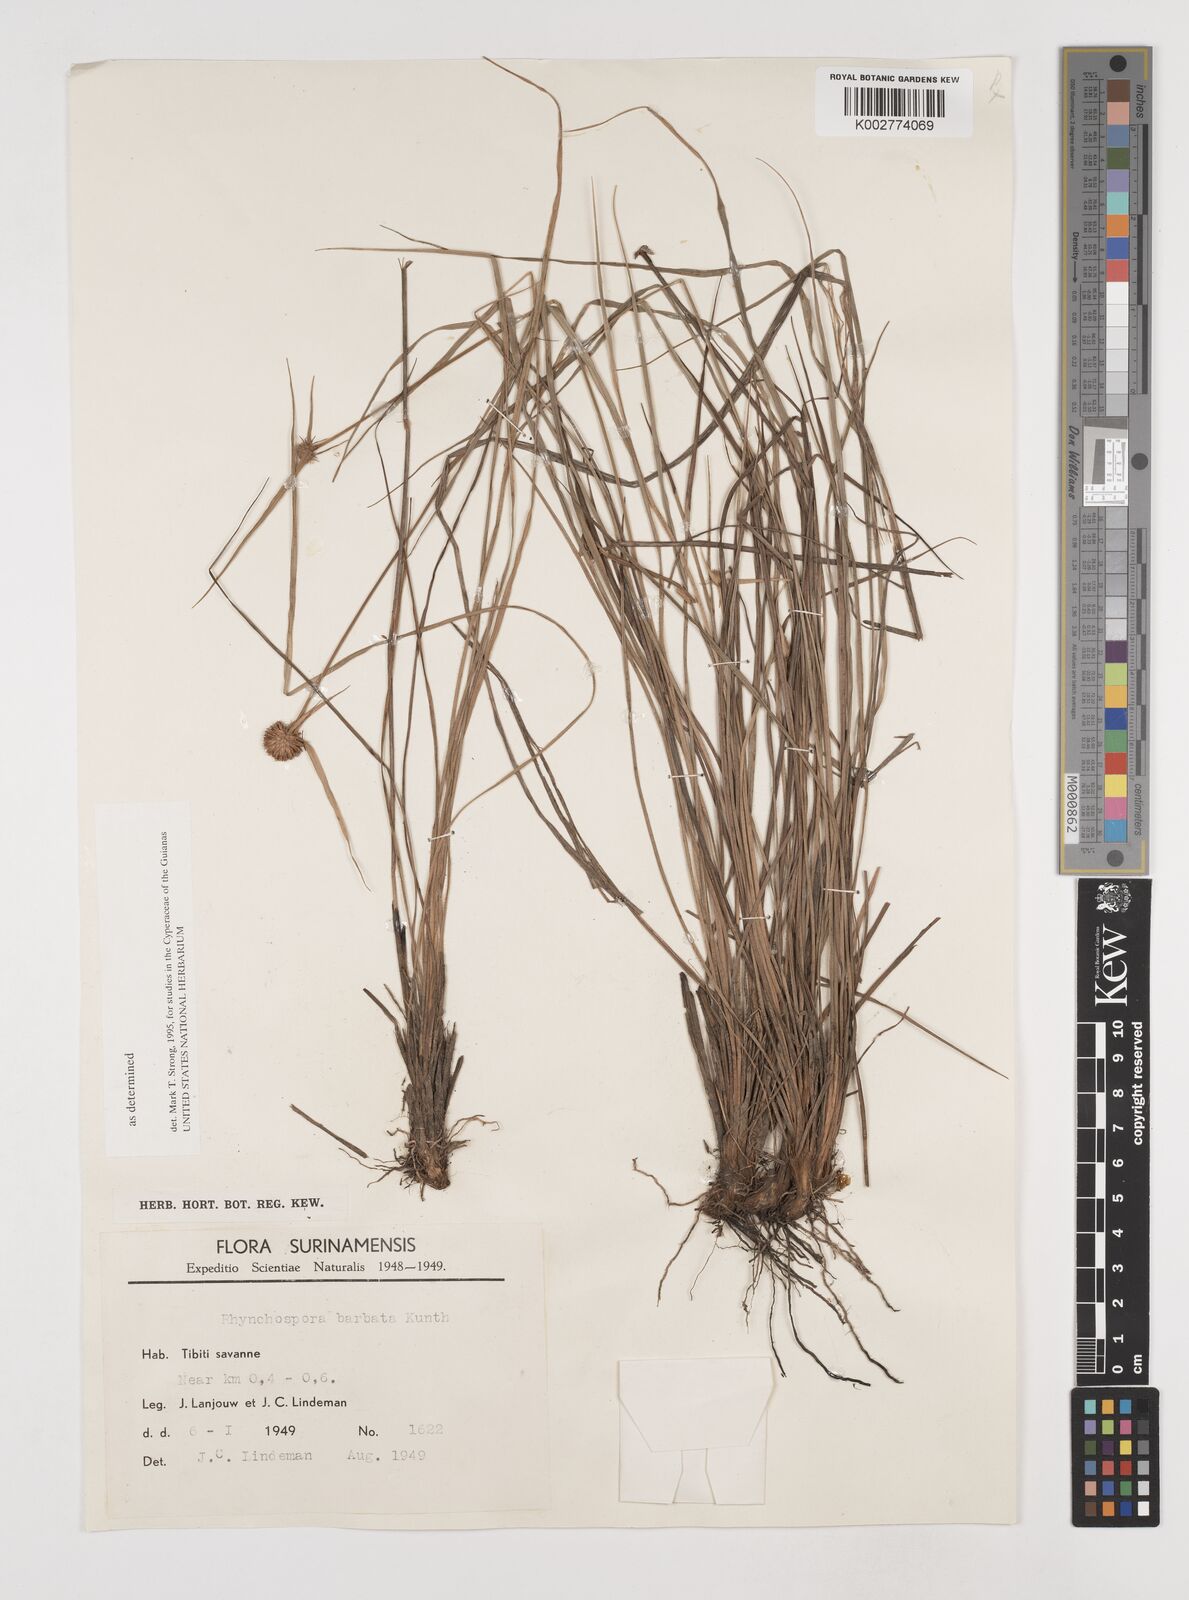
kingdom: Plantae
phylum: Tracheophyta
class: Liliopsida
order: Poales
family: Cyperaceae
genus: Rhynchospora
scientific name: Rhynchospora barbata
